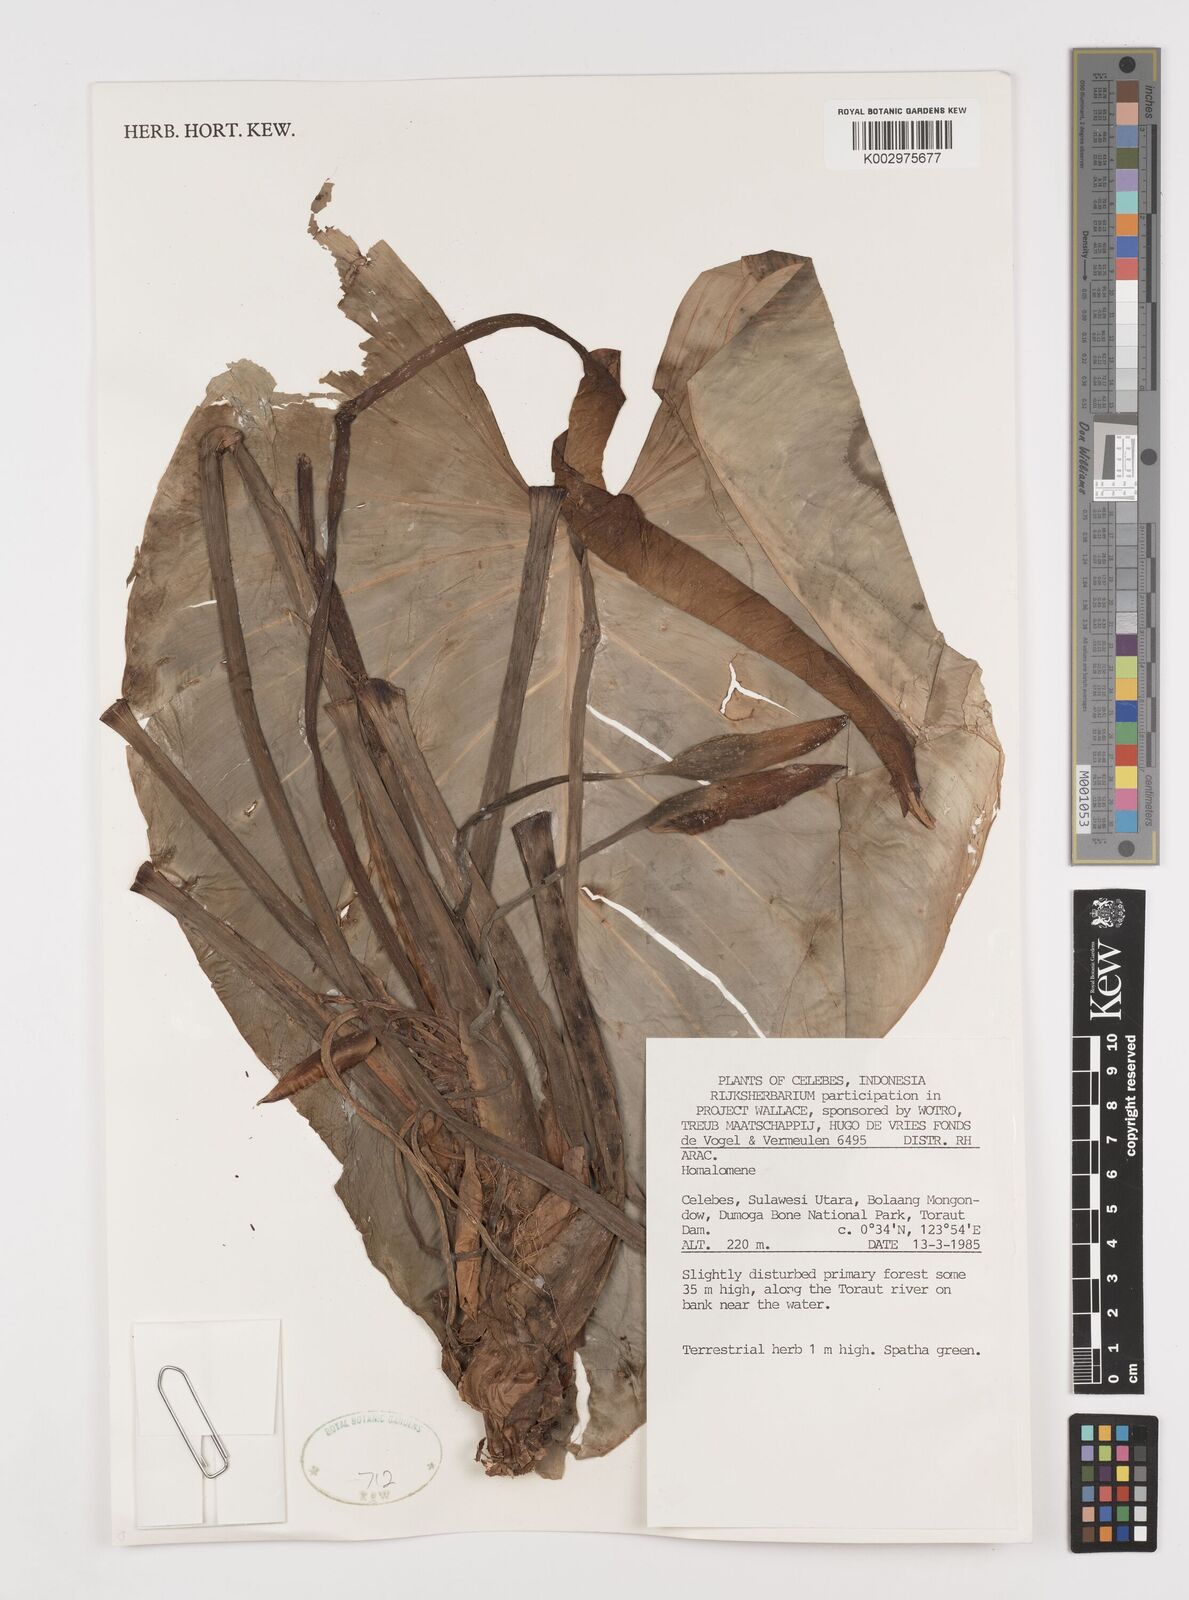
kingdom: Plantae
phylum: Tracheophyta
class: Liliopsida
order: Alismatales
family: Araceae
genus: Homalomena
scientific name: Homalomena
